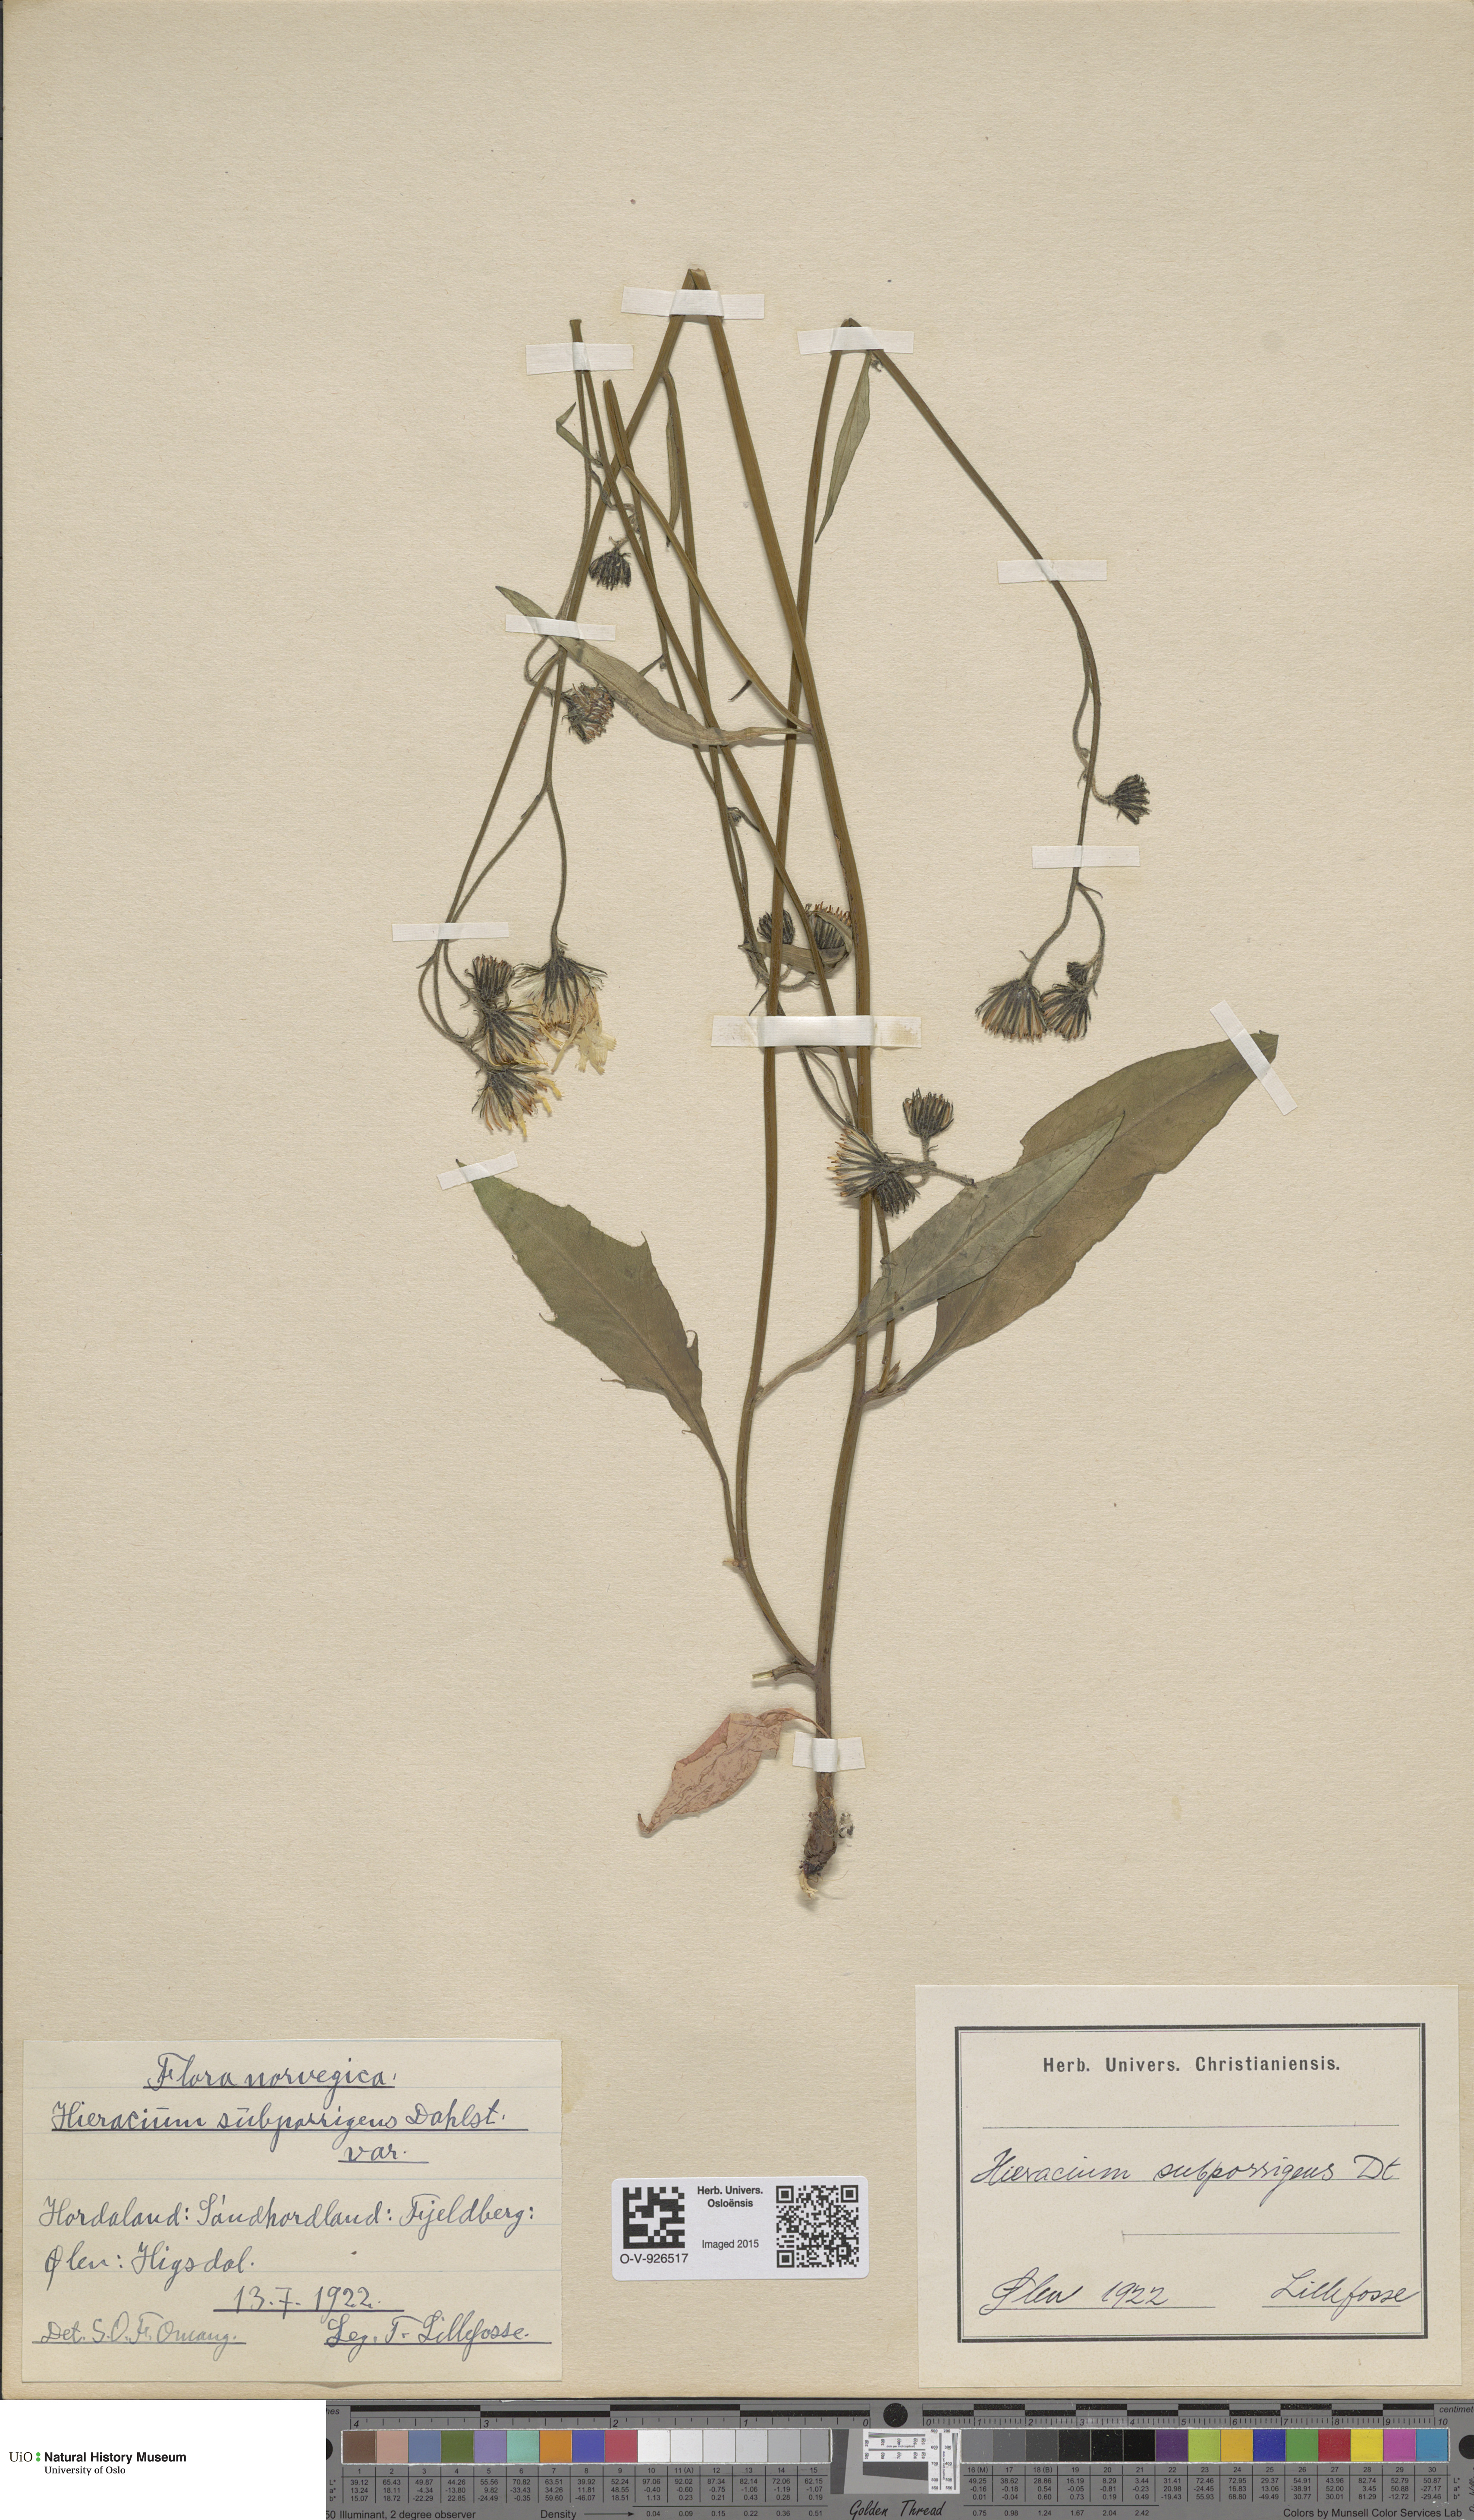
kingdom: Plantae
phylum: Tracheophyta
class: Magnoliopsida
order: Asterales
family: Asteraceae
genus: Hieracium
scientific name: Hieracium
